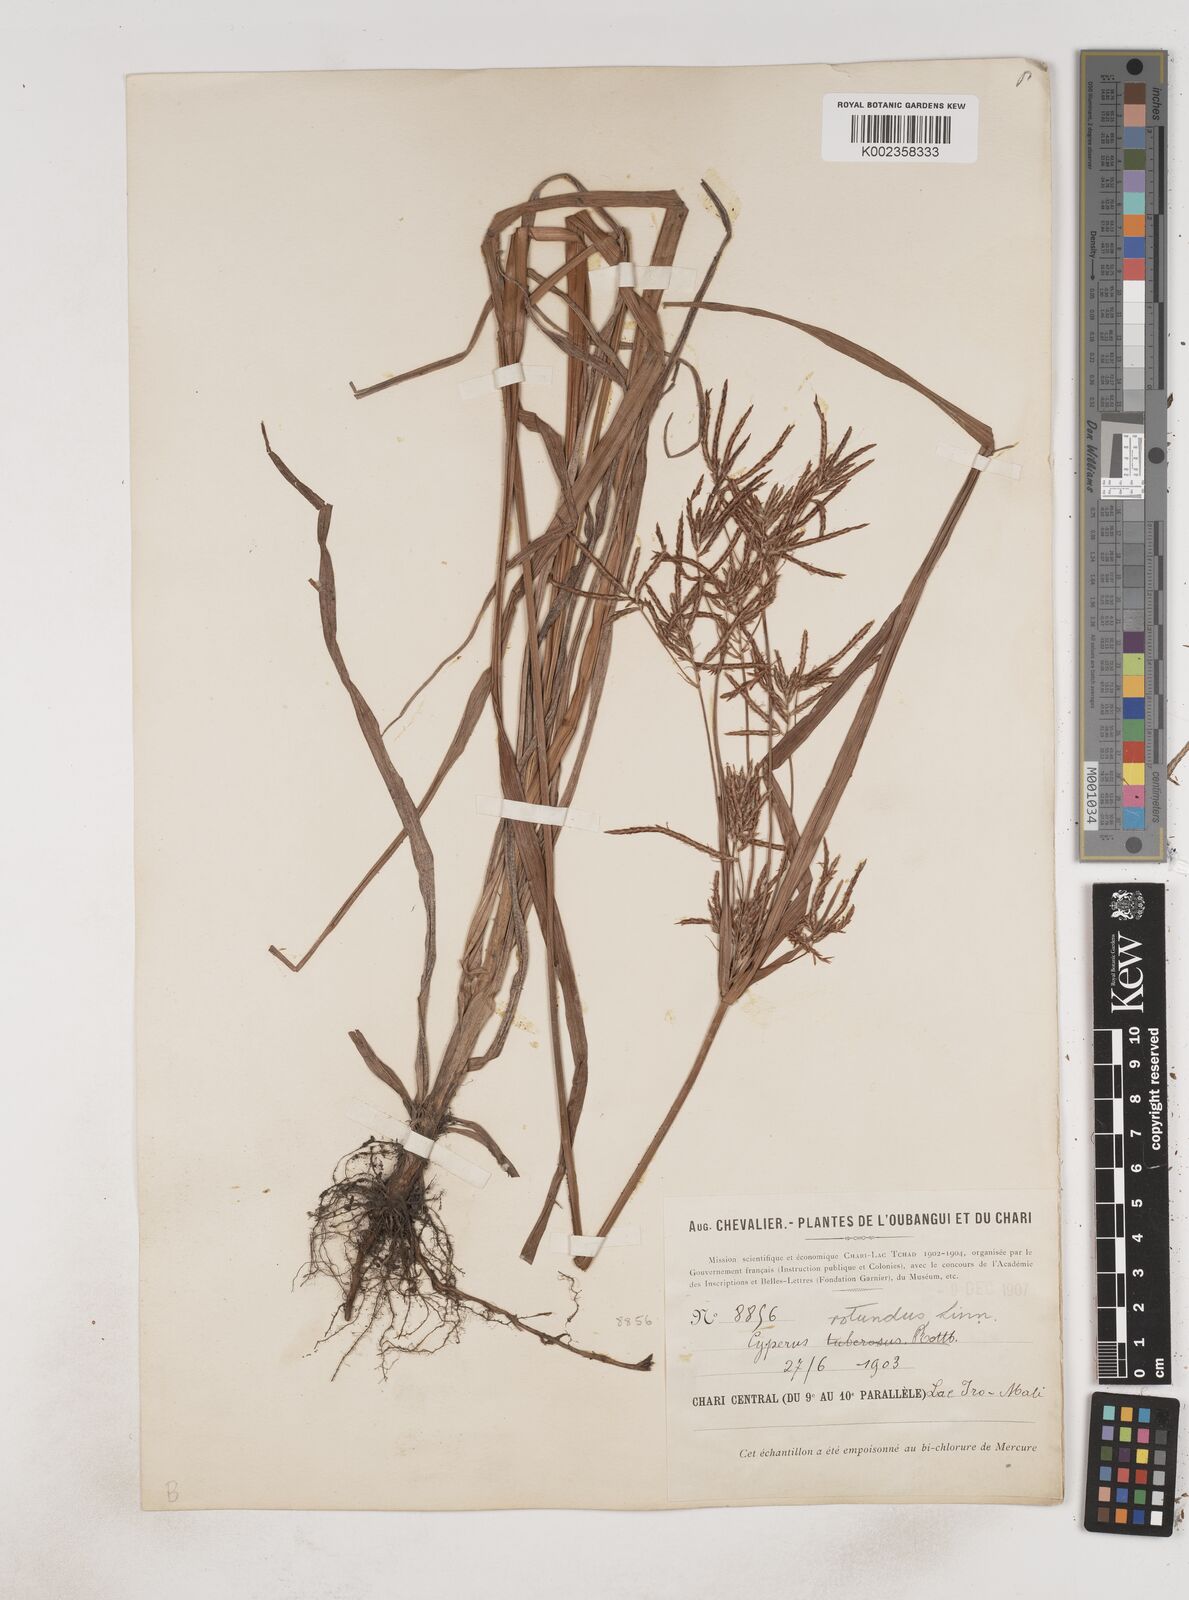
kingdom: Plantae
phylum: Tracheophyta
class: Liliopsida
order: Poales
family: Cyperaceae
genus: Cyperus
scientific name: Cyperus tuberosus
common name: Nut grass
